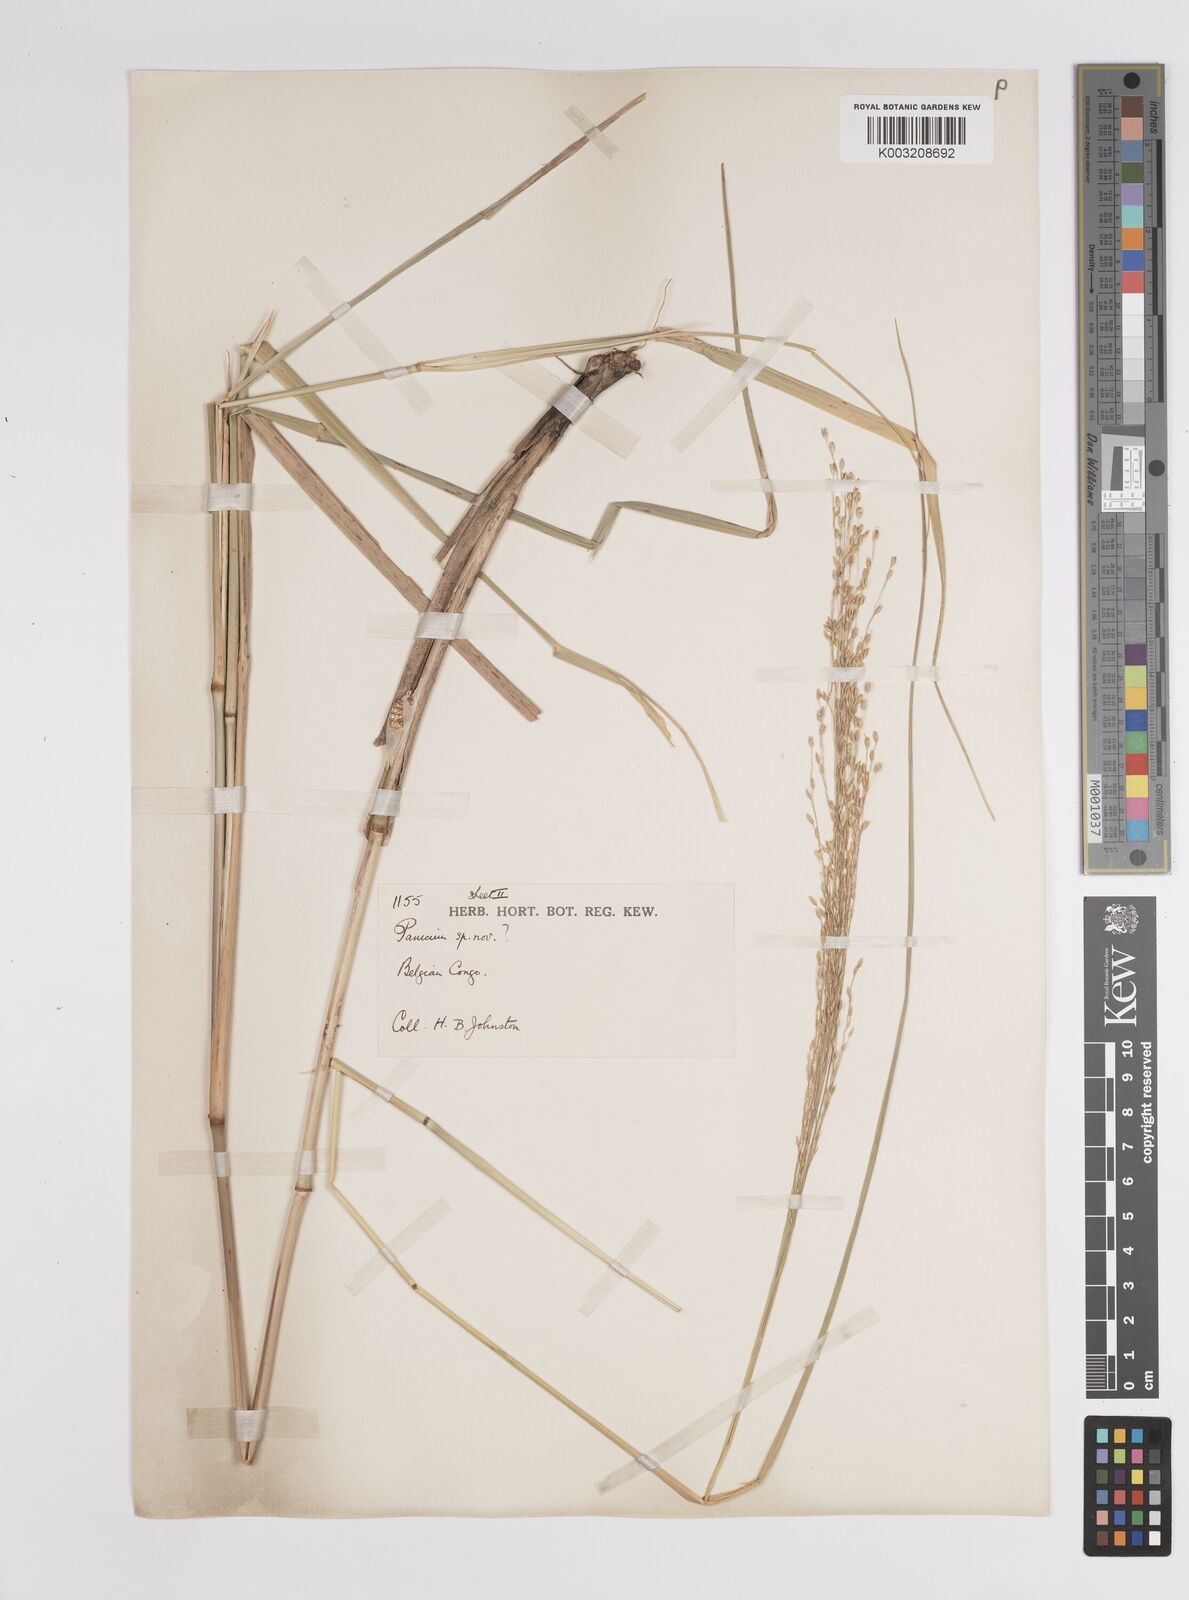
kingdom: Plantae
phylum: Tracheophyta
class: Liliopsida
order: Poales
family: Poaceae
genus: Panicum
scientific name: Panicum phragmitoides
